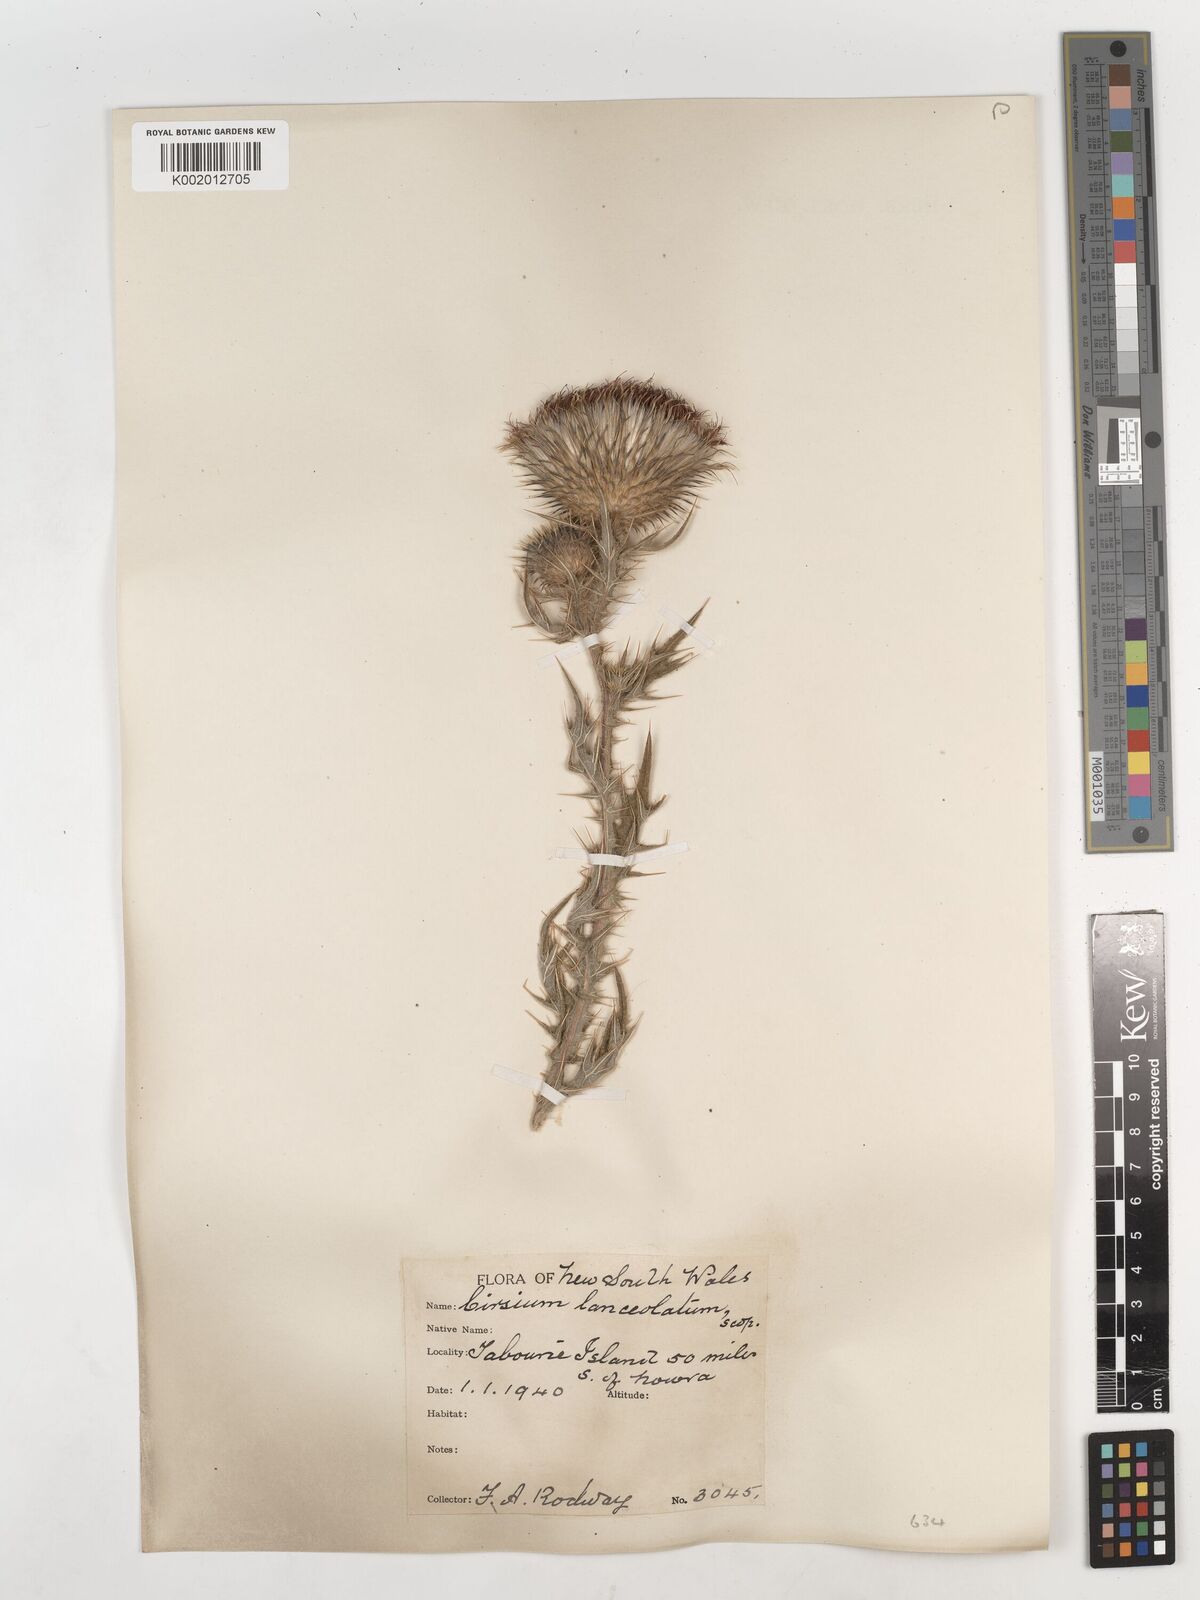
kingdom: Plantae
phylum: Tracheophyta
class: Magnoliopsida
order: Asterales
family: Asteraceae
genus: Cirsium
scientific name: Cirsium vulgare
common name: Bull thistle
